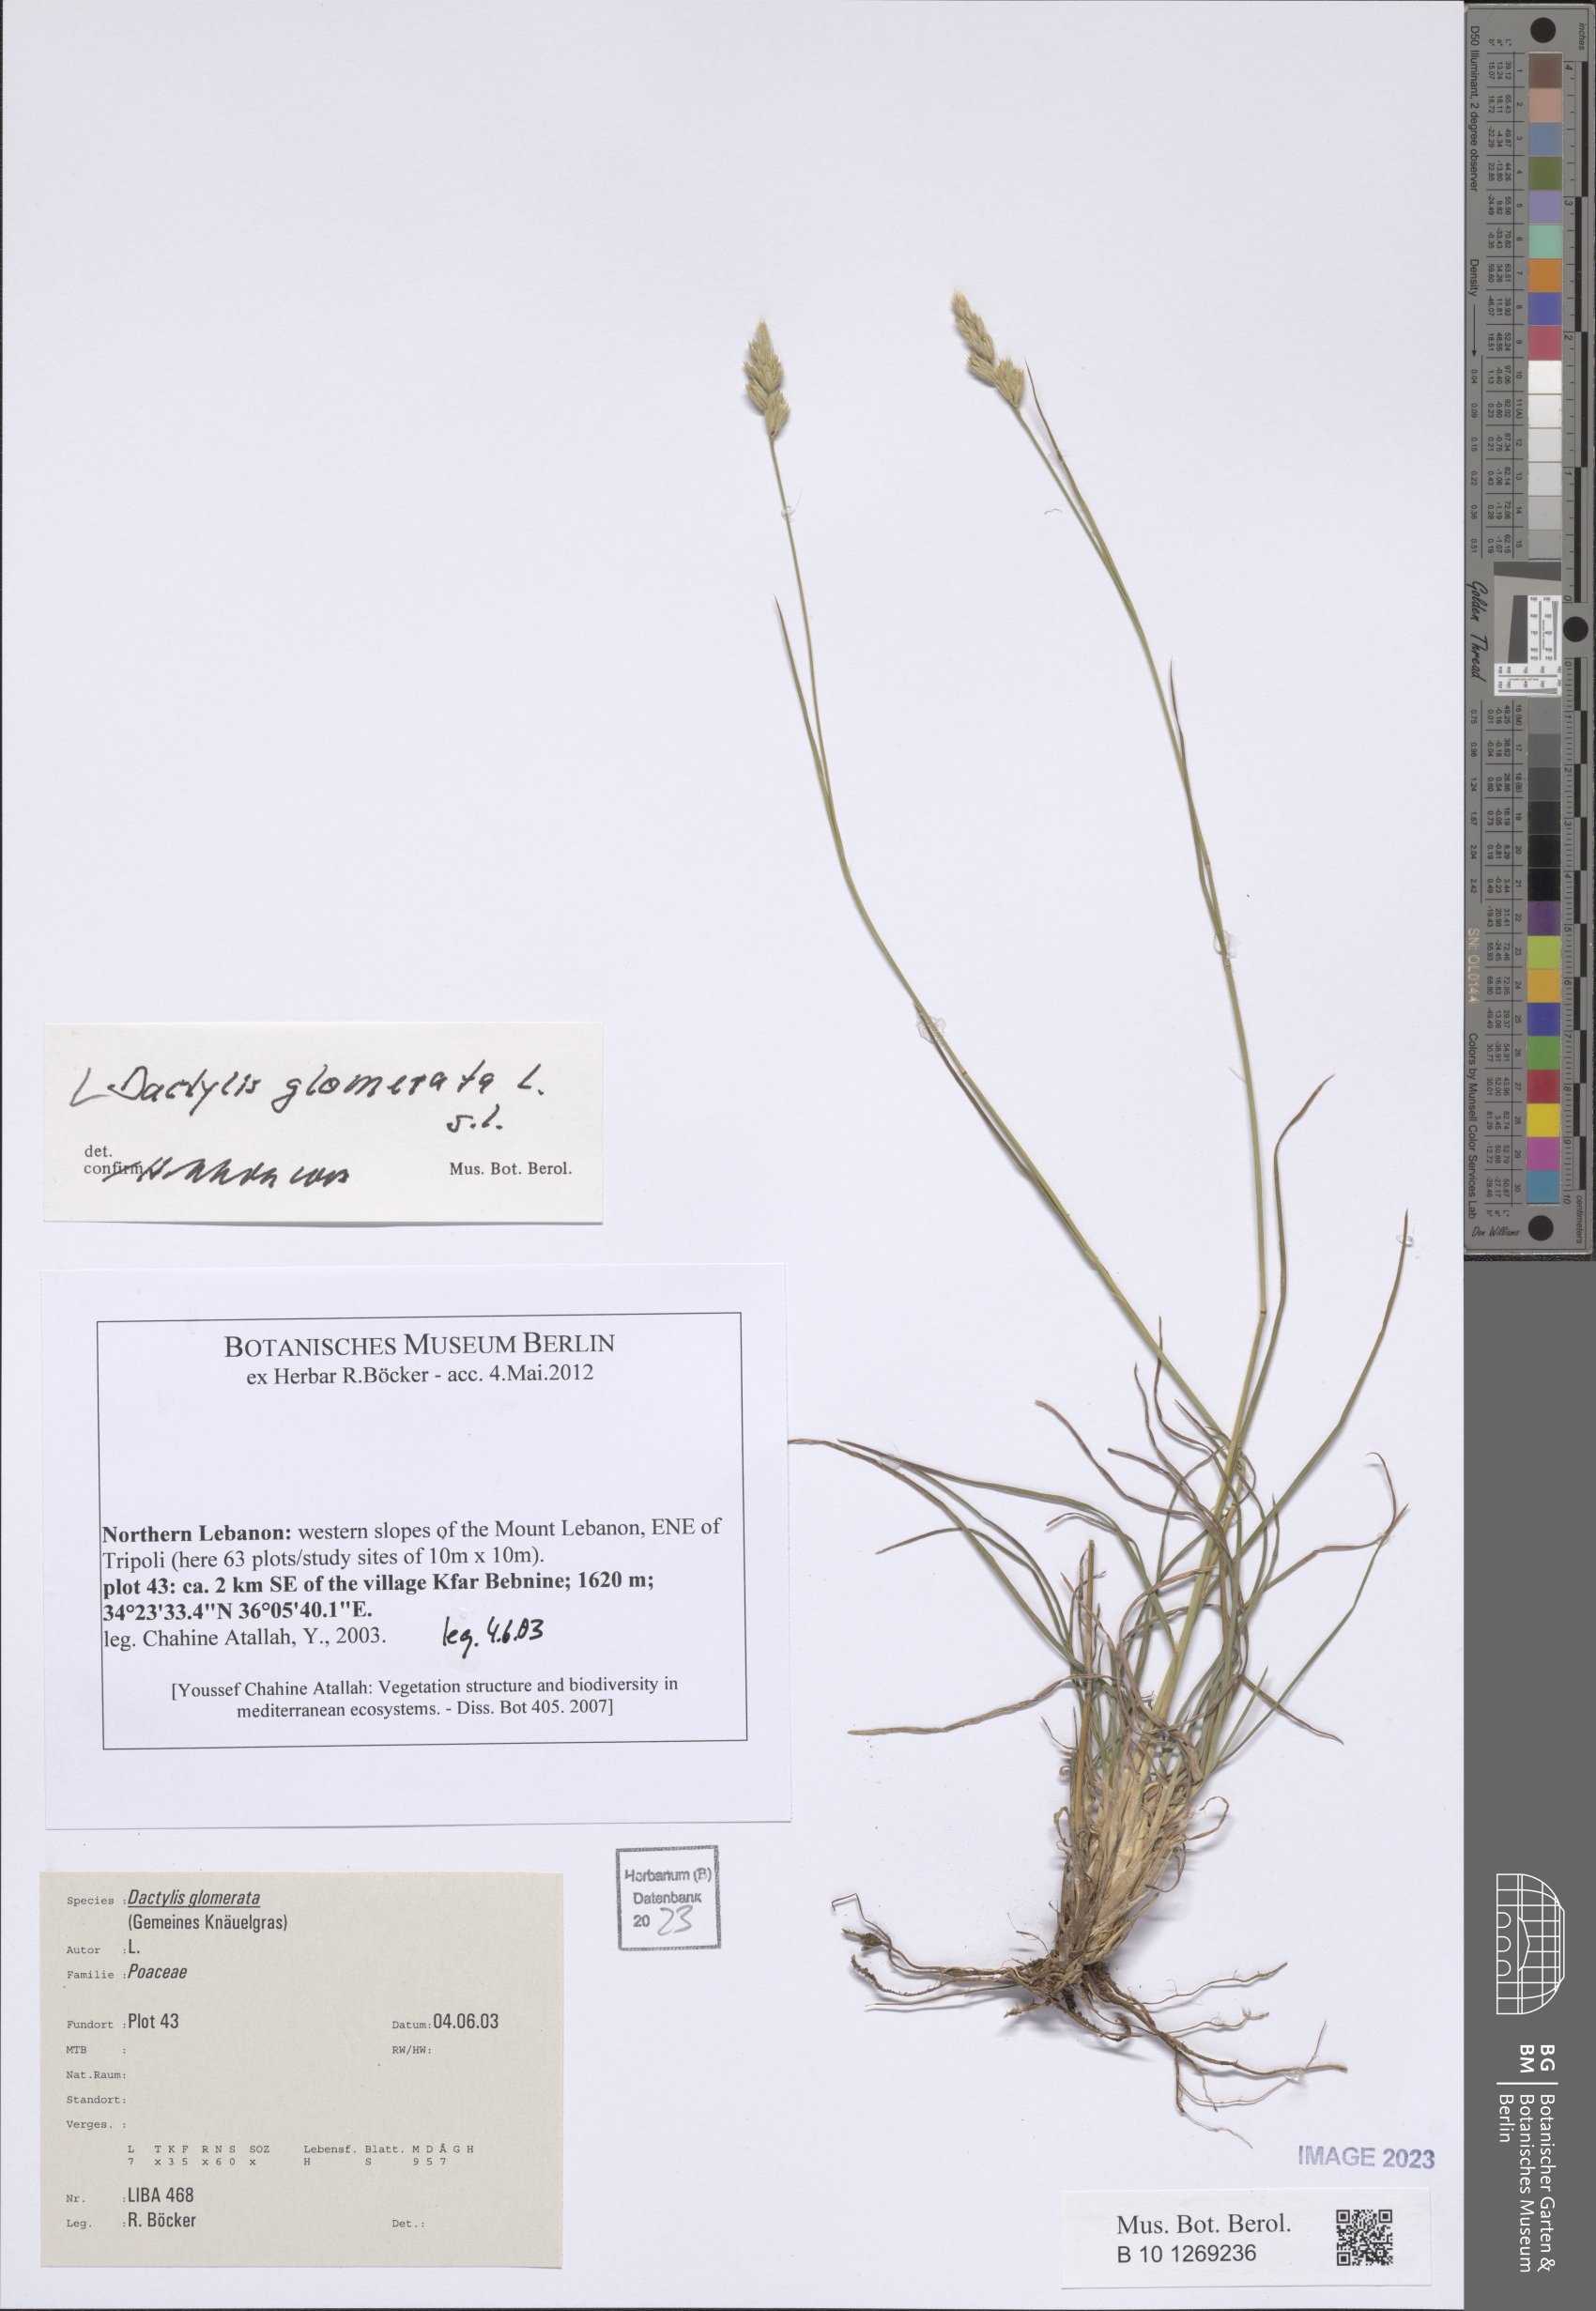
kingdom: Plantae
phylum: Tracheophyta
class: Liliopsida
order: Poales
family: Poaceae
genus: Dactylis
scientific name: Dactylis glomerata
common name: Orchardgrass
